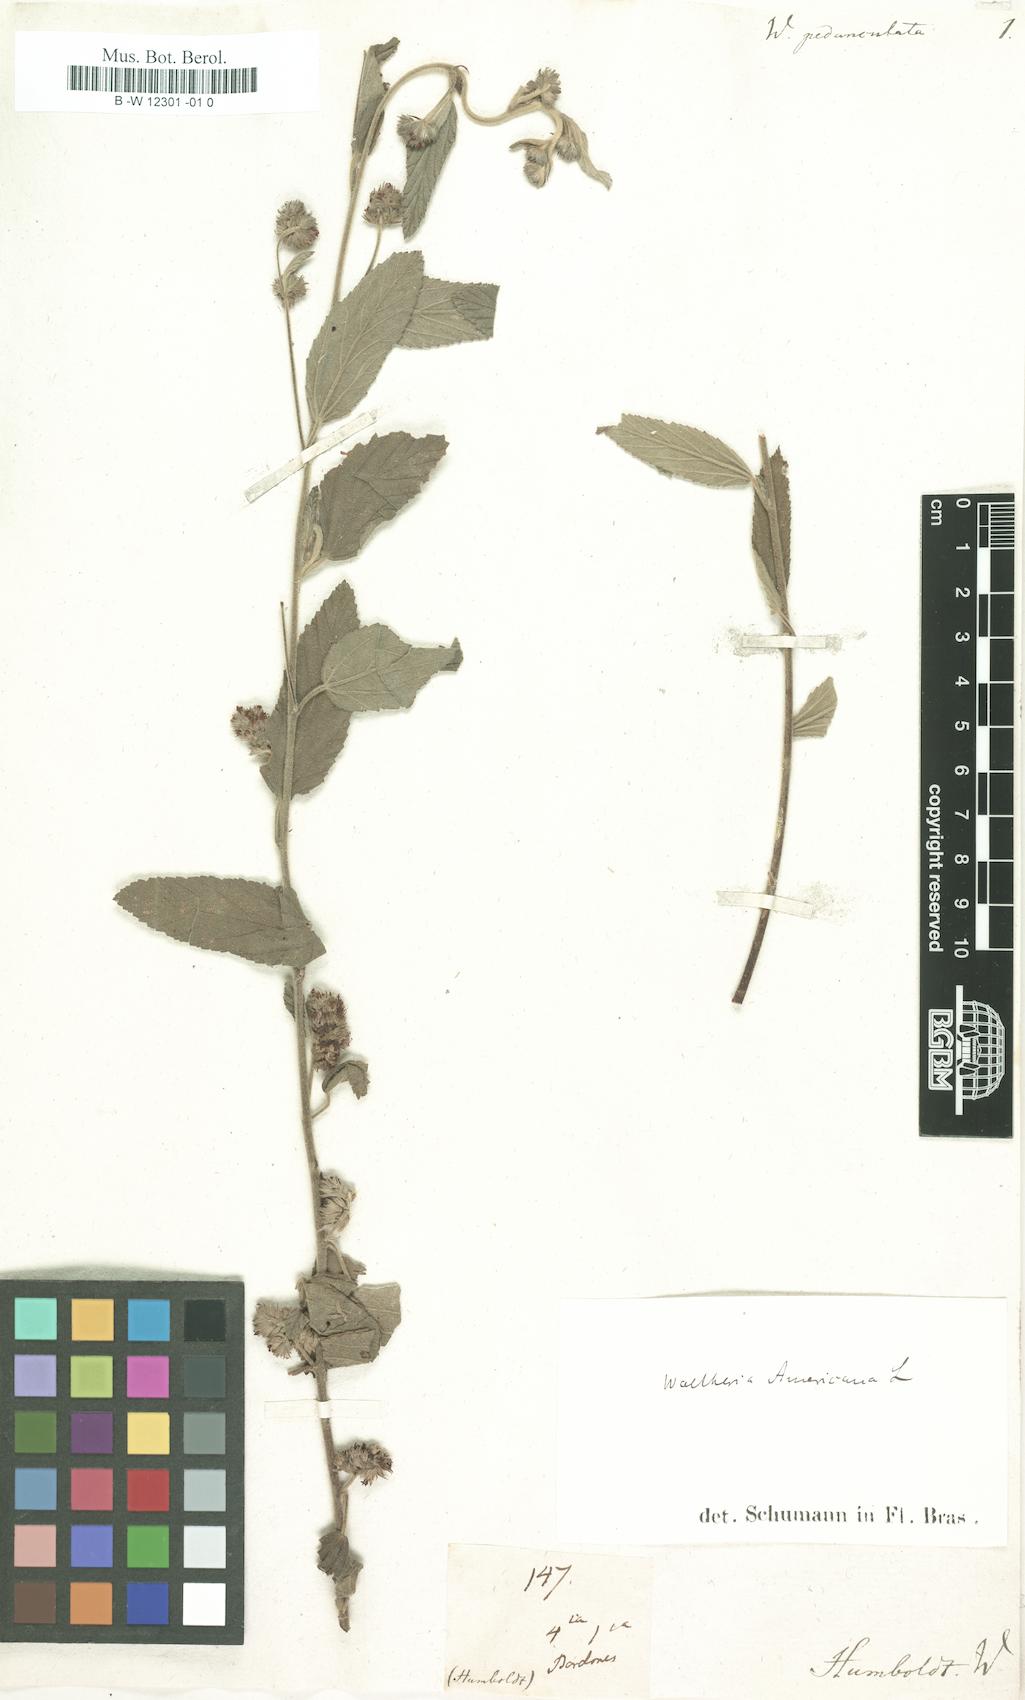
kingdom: Plantae
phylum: Tracheophyta
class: Magnoliopsida
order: Malvales
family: Malvaceae
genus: Waltheria
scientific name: Waltheria indica
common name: Leather-coat
